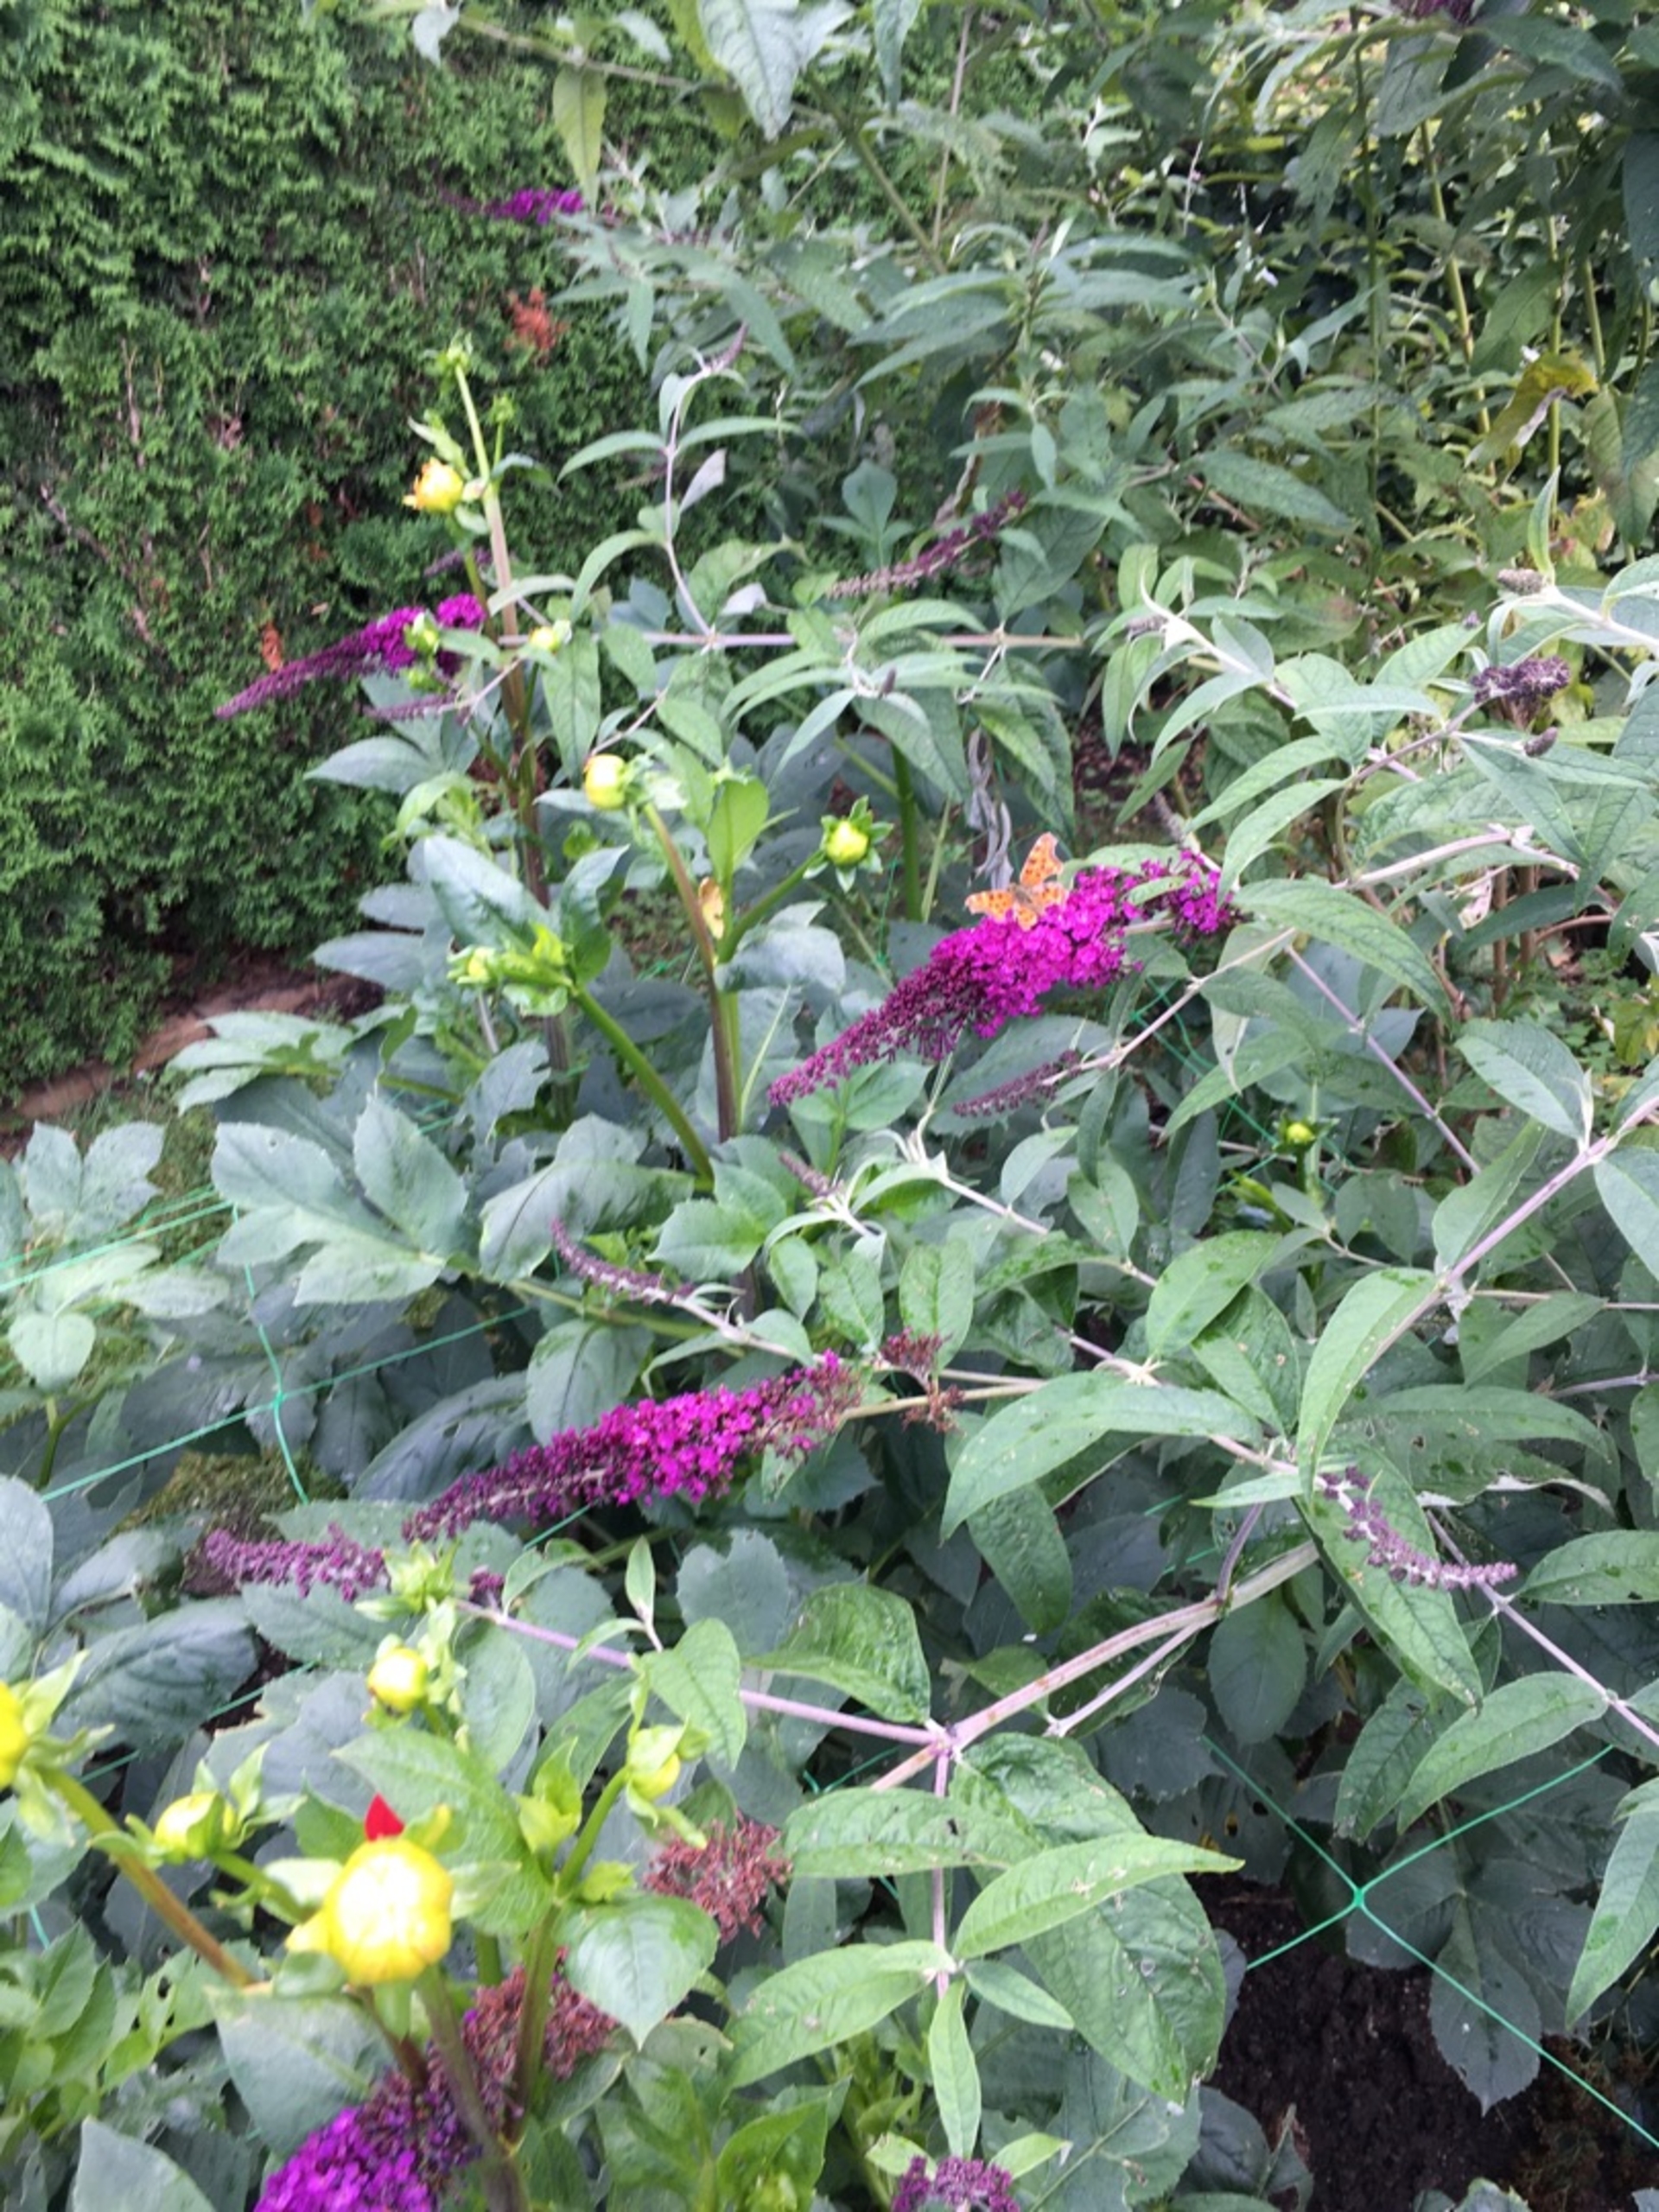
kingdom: Animalia
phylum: Arthropoda
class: Insecta
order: Lepidoptera
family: Nymphalidae
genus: Polygonia
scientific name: Polygonia c-album
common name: Det hvide C
